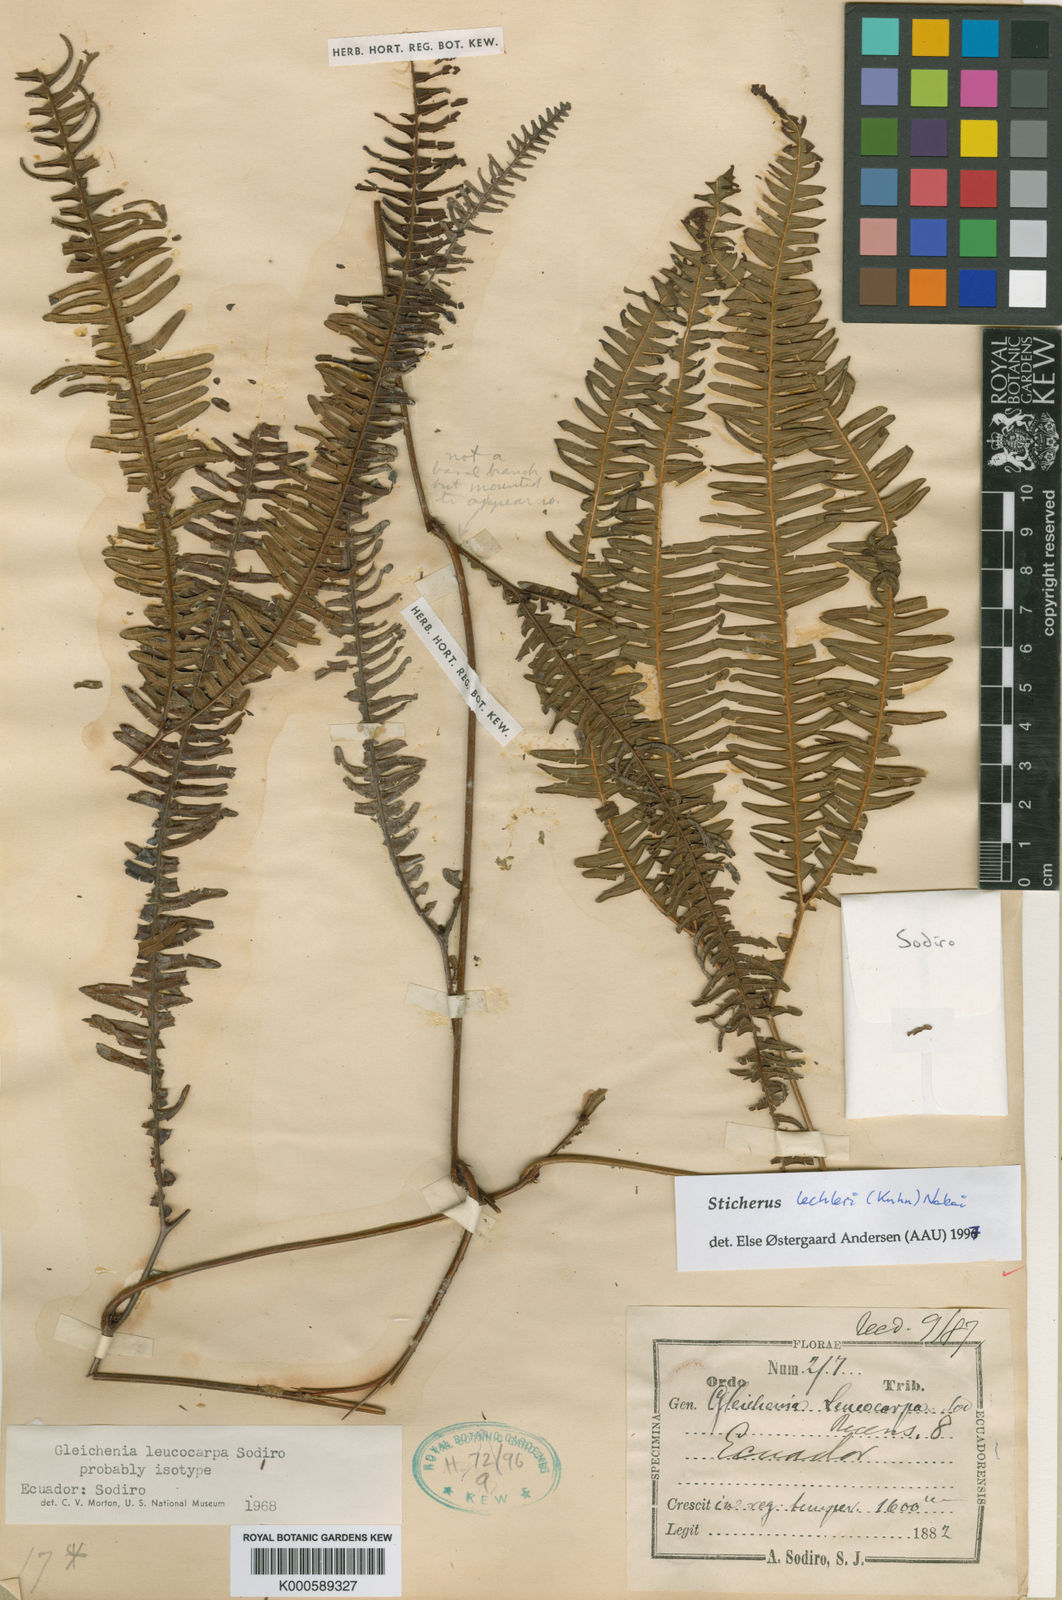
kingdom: Plantae
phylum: Tracheophyta
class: Polypodiopsida
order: Gleicheniales
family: Gleicheniaceae
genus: Sticherus
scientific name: Sticherus lechleri
